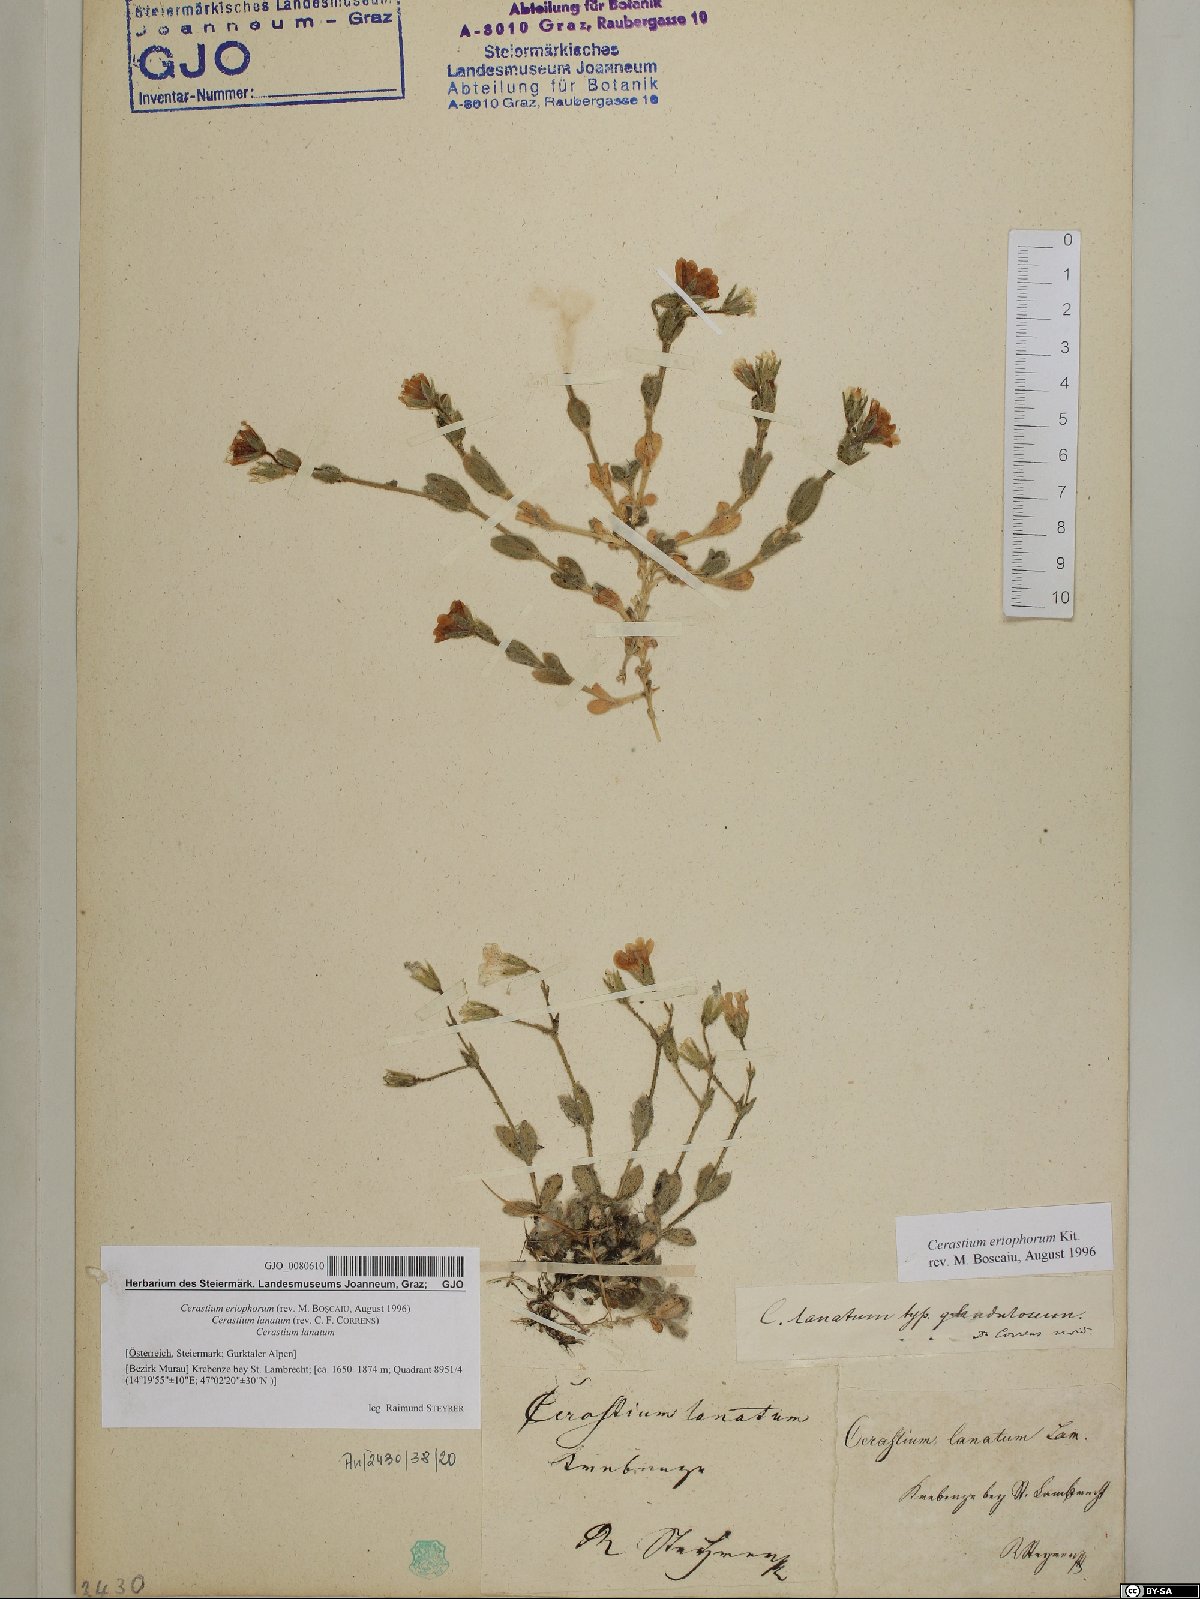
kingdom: Plantae
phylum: Tracheophyta
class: Magnoliopsida
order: Caryophyllales
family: Caryophyllaceae
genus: Cerastium
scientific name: Cerastium eriophorum
